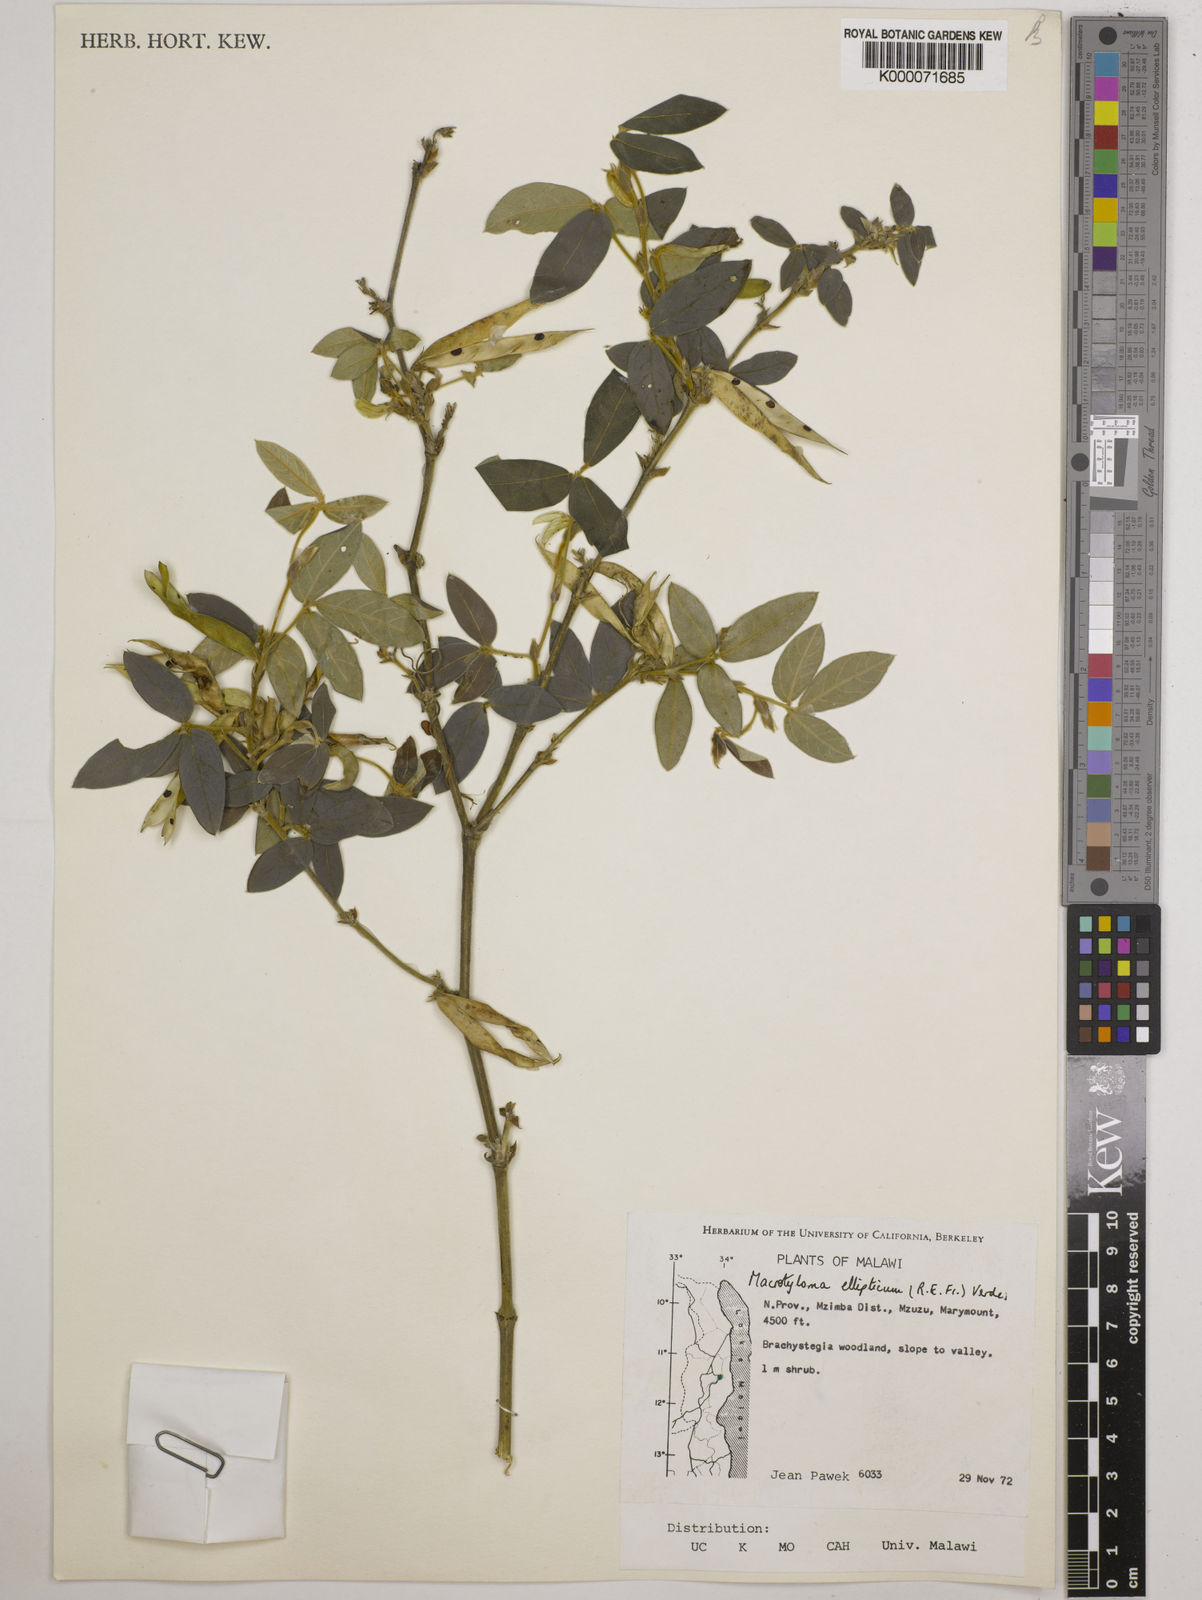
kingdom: Plantae
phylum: Tracheophyta
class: Magnoliopsida
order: Fabales
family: Fabaceae
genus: Macrotyloma
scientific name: Macrotyloma ellipticum
